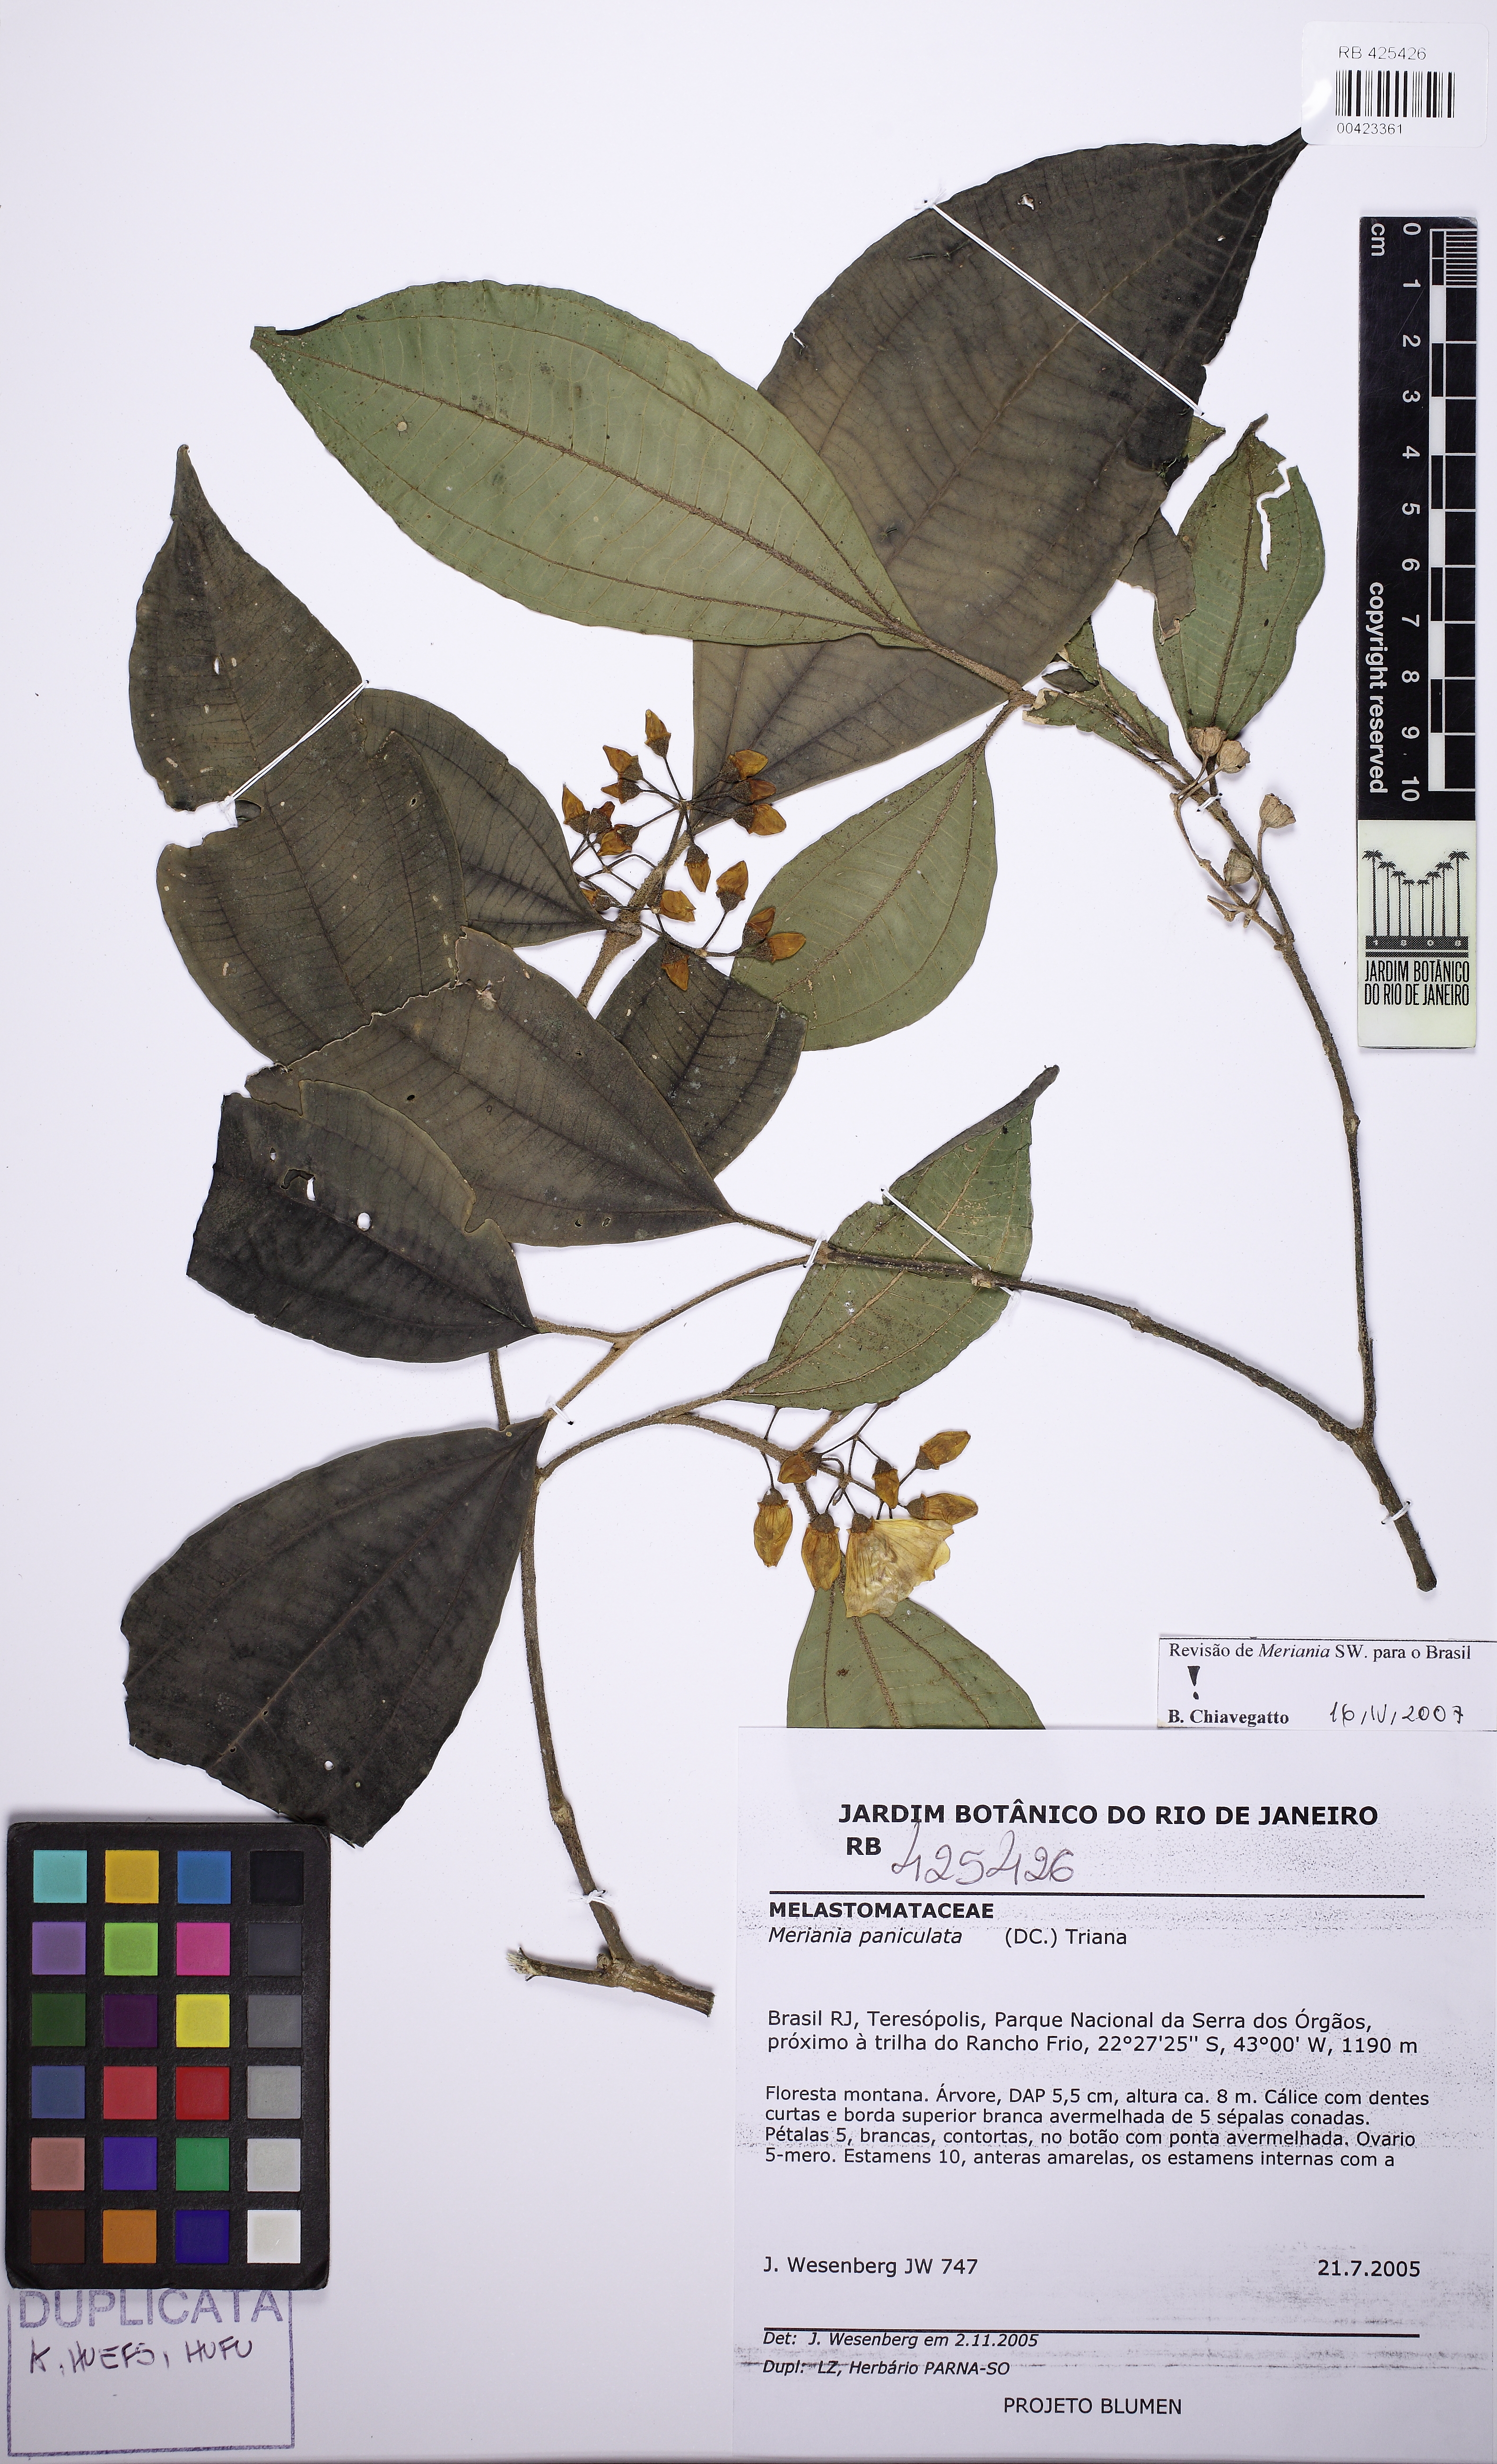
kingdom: Plantae
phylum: Tracheophyta
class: Magnoliopsida
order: Myrtales
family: Melastomataceae
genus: Meriania
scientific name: Meriania paniculata
